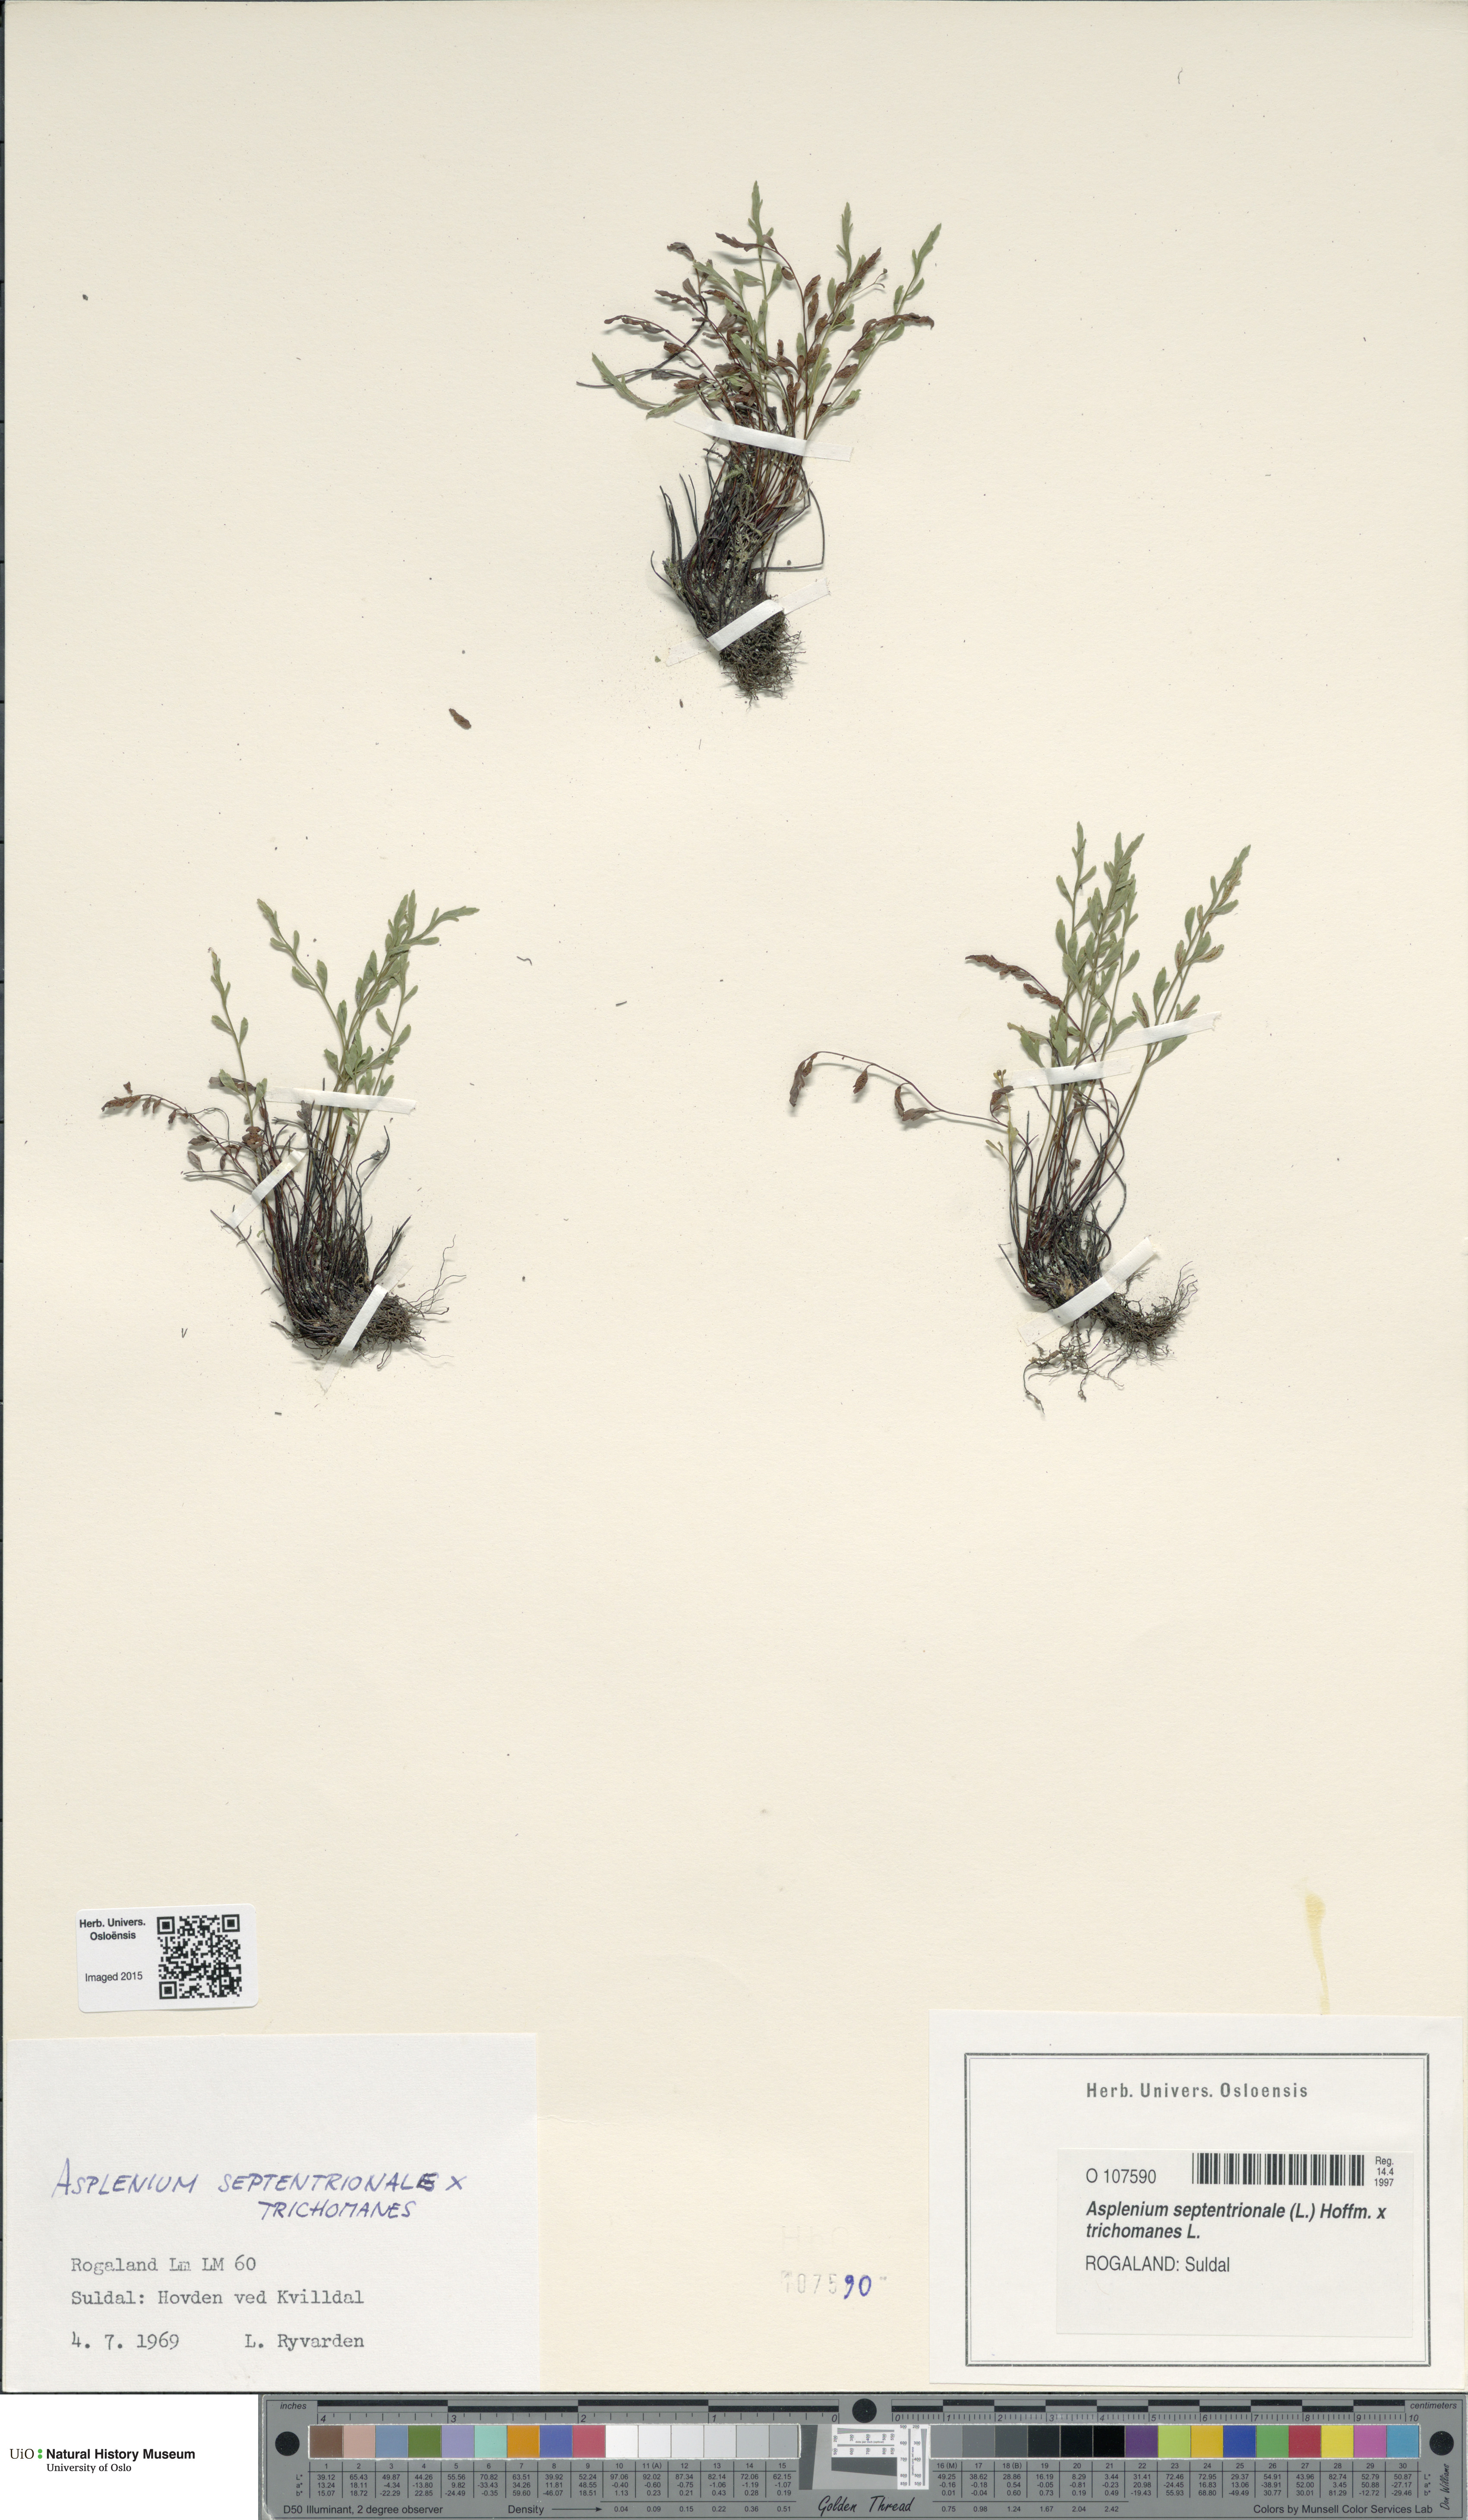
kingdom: Plantae
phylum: Tracheophyta
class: Polypodiopsida
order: Polypodiales
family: Aspleniaceae
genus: Asplenium
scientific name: Asplenium
